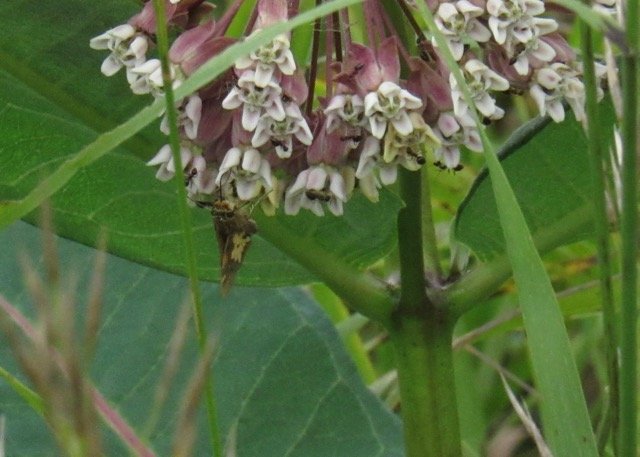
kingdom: Animalia
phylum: Arthropoda
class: Insecta
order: Lepidoptera
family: Hesperiidae
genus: Polites
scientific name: Polites coras
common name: Peck's Skipper
